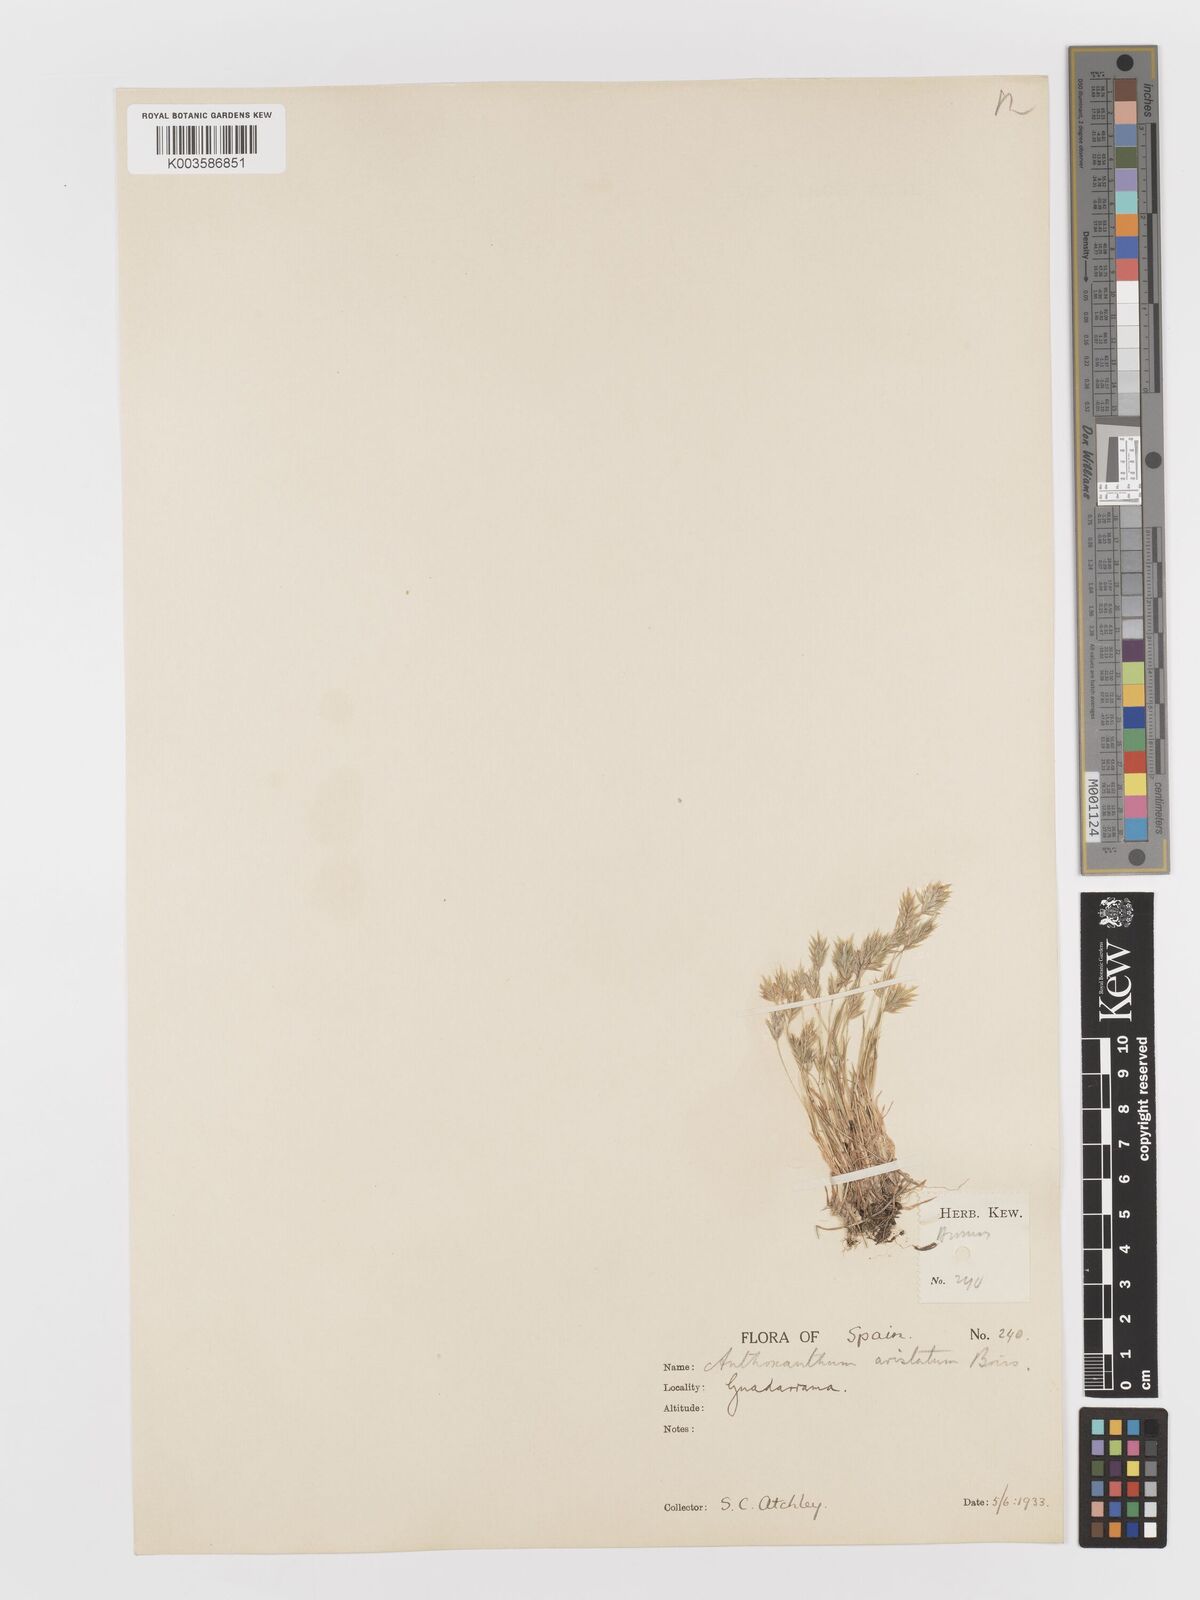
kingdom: Plantae
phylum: Tracheophyta
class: Liliopsida
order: Poales
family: Poaceae
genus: Anthoxanthum
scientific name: Anthoxanthum
